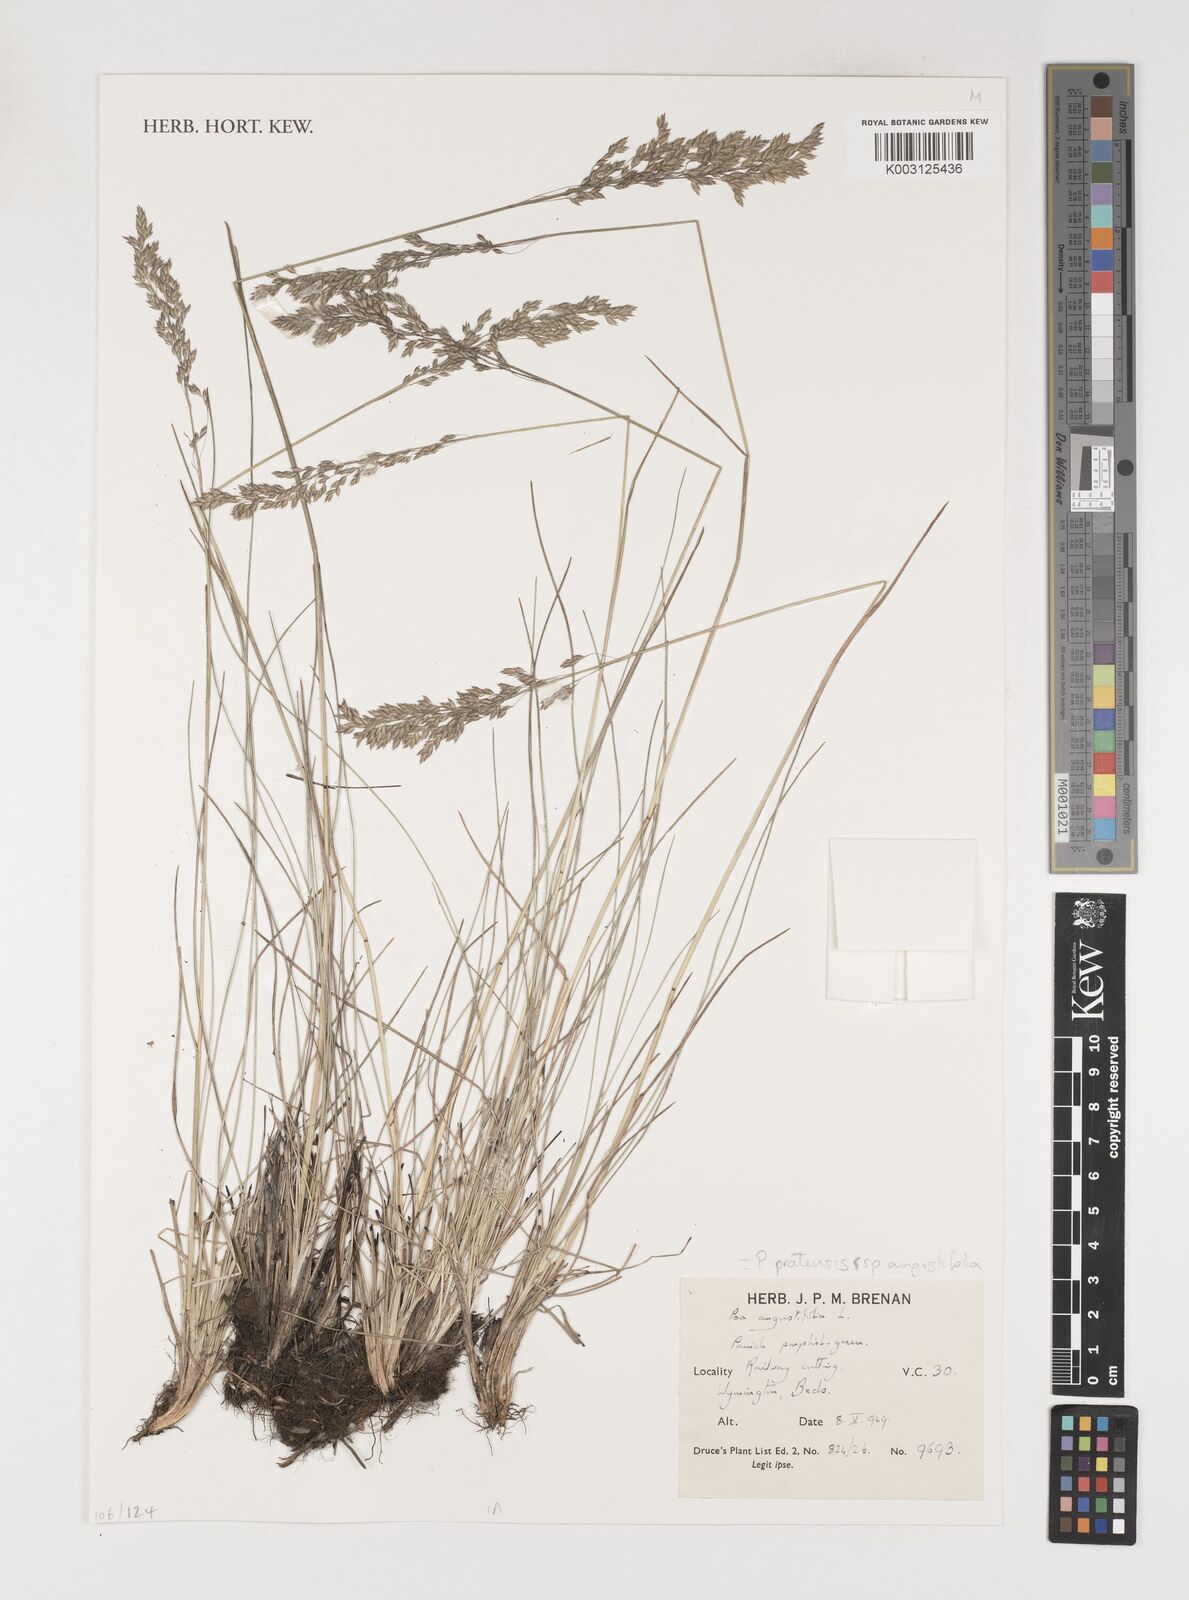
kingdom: Plantae
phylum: Tracheophyta
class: Liliopsida
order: Poales
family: Poaceae
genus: Poa
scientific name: Poa angustifolia
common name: Narrow-leaved meadow-grass
